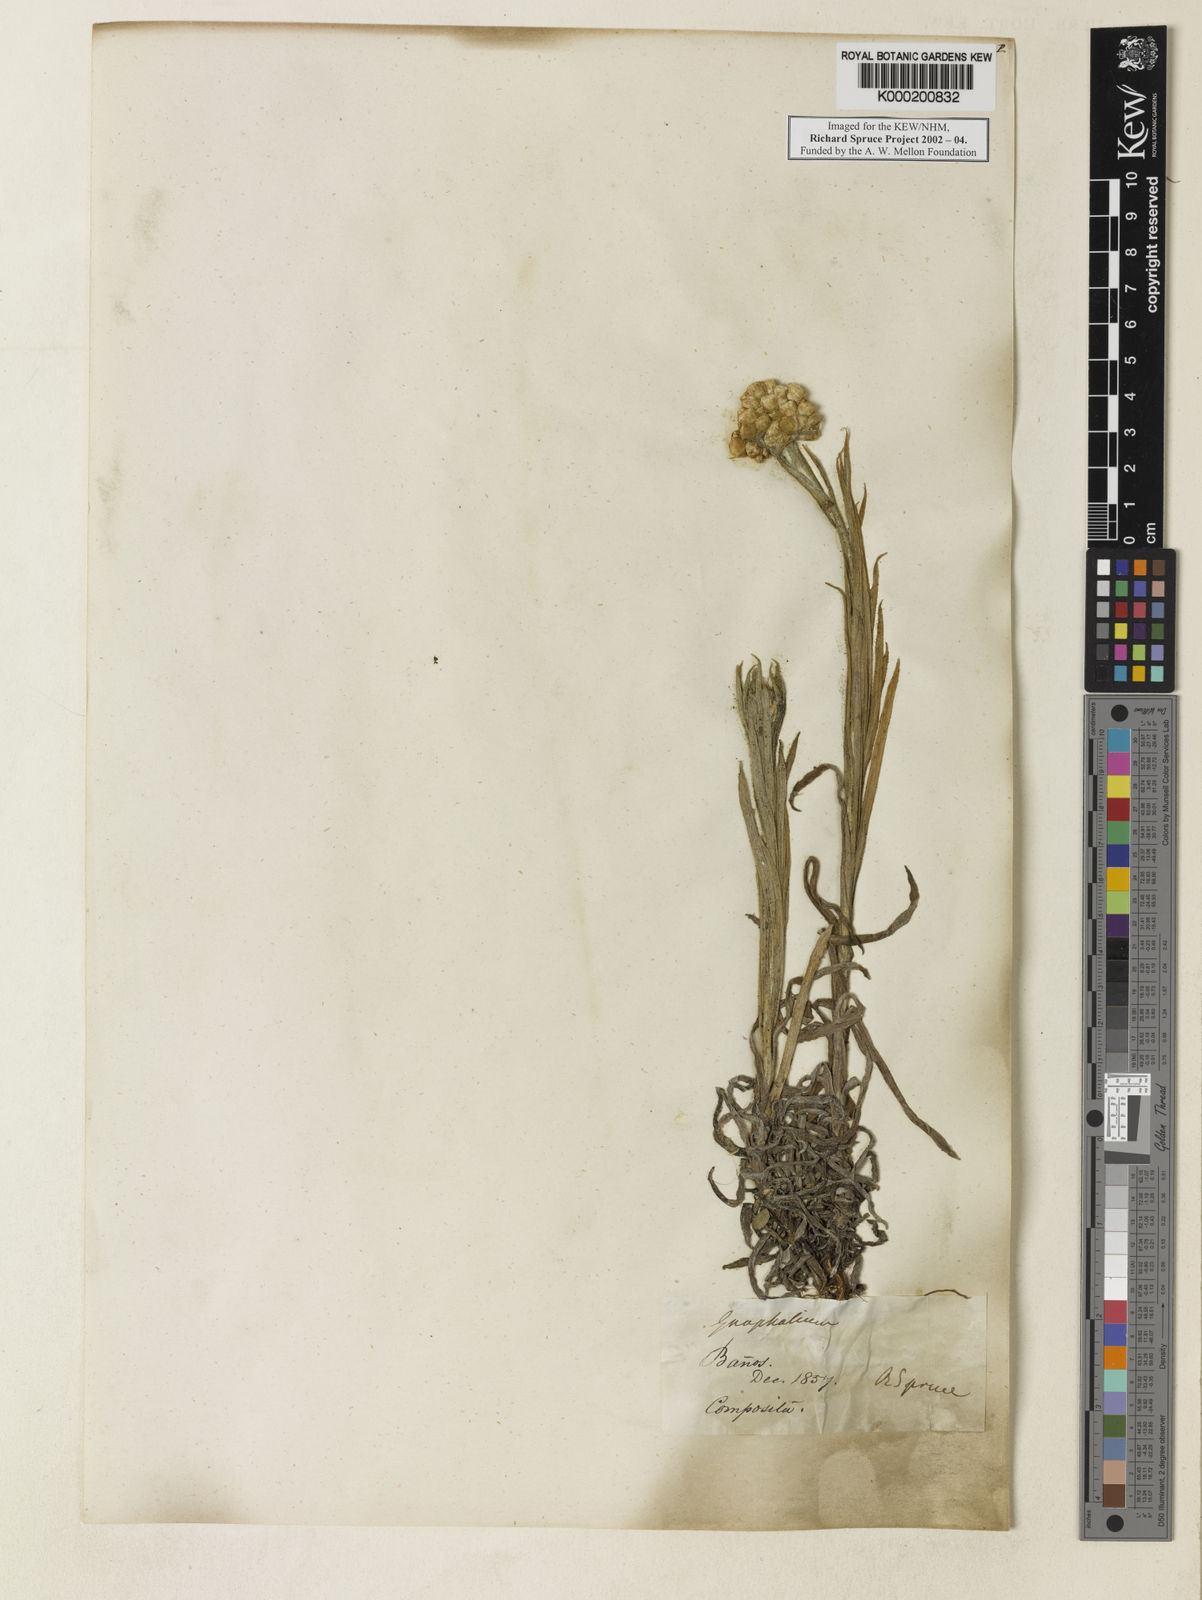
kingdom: Plantae
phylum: Tracheophyta
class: Magnoliopsida
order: Asterales
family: Asteraceae
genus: Pseudognaphalium
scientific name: Pseudognaphalium
